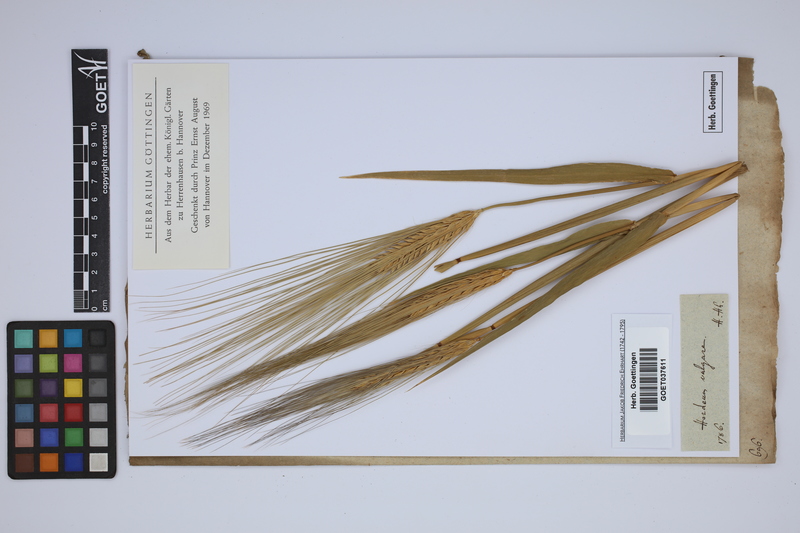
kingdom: Plantae
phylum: Tracheophyta
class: Liliopsida
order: Poales
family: Poaceae
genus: Hordeum
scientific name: Hordeum vulgare
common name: Common barley
